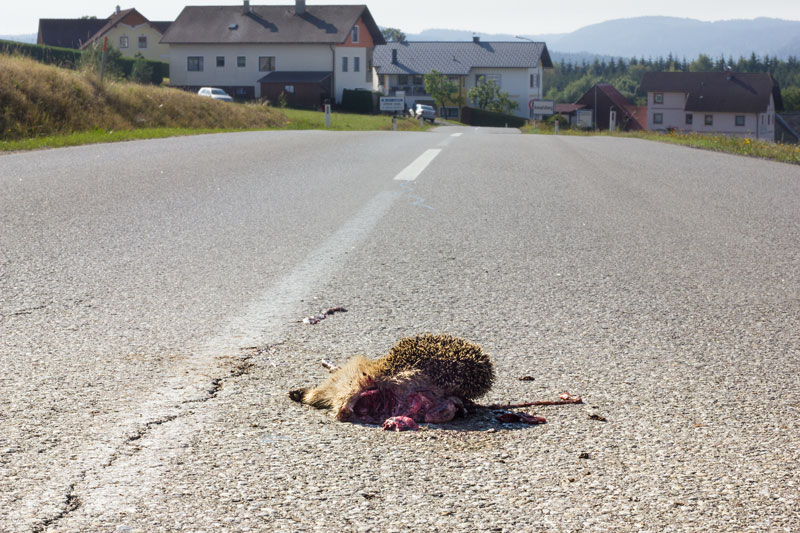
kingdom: Animalia
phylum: Chordata
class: Mammalia
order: Erinaceomorpha
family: Erinaceidae
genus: Erinaceus
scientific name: Erinaceus
